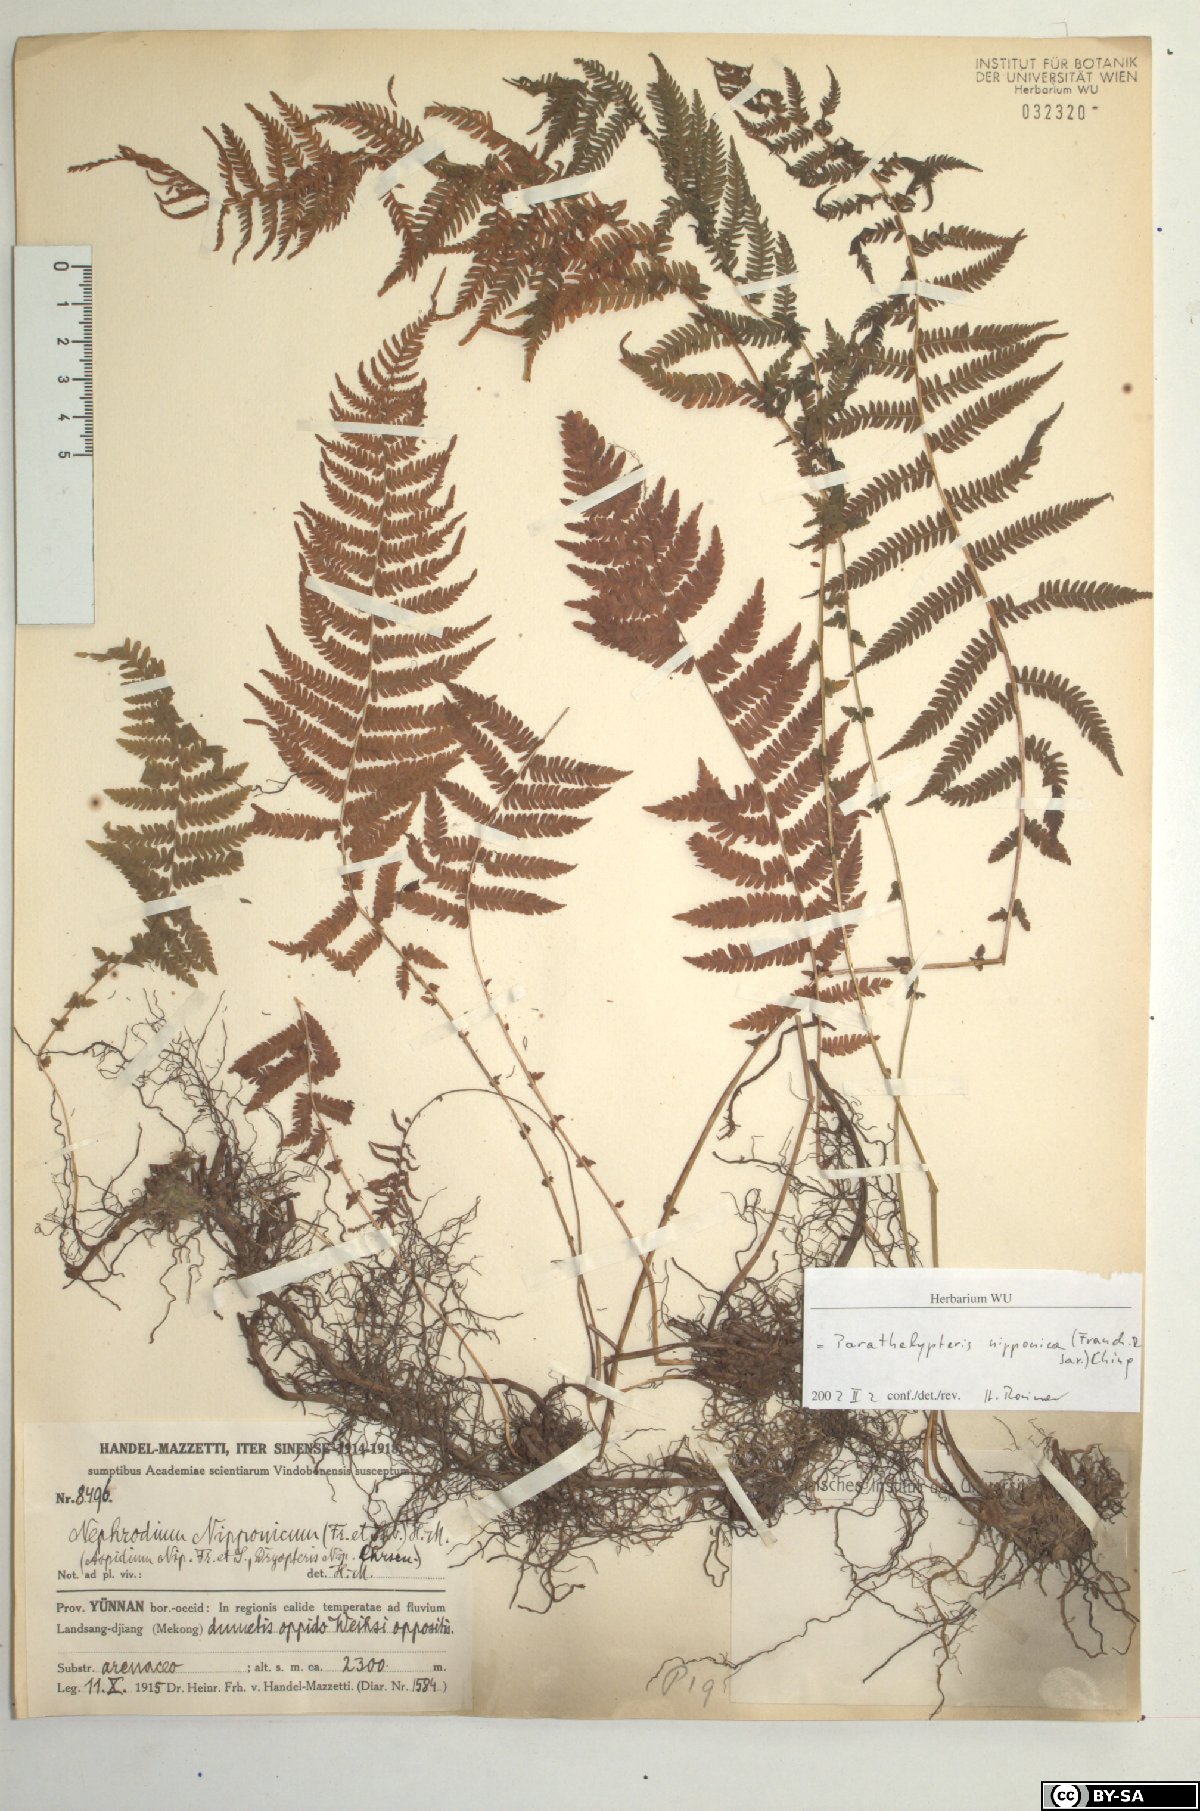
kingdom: Plantae
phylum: Tracheophyta
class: Polypodiopsida
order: Polypodiales
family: Thelypteridaceae
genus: Coryphopteris
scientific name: Coryphopteris nipponica
